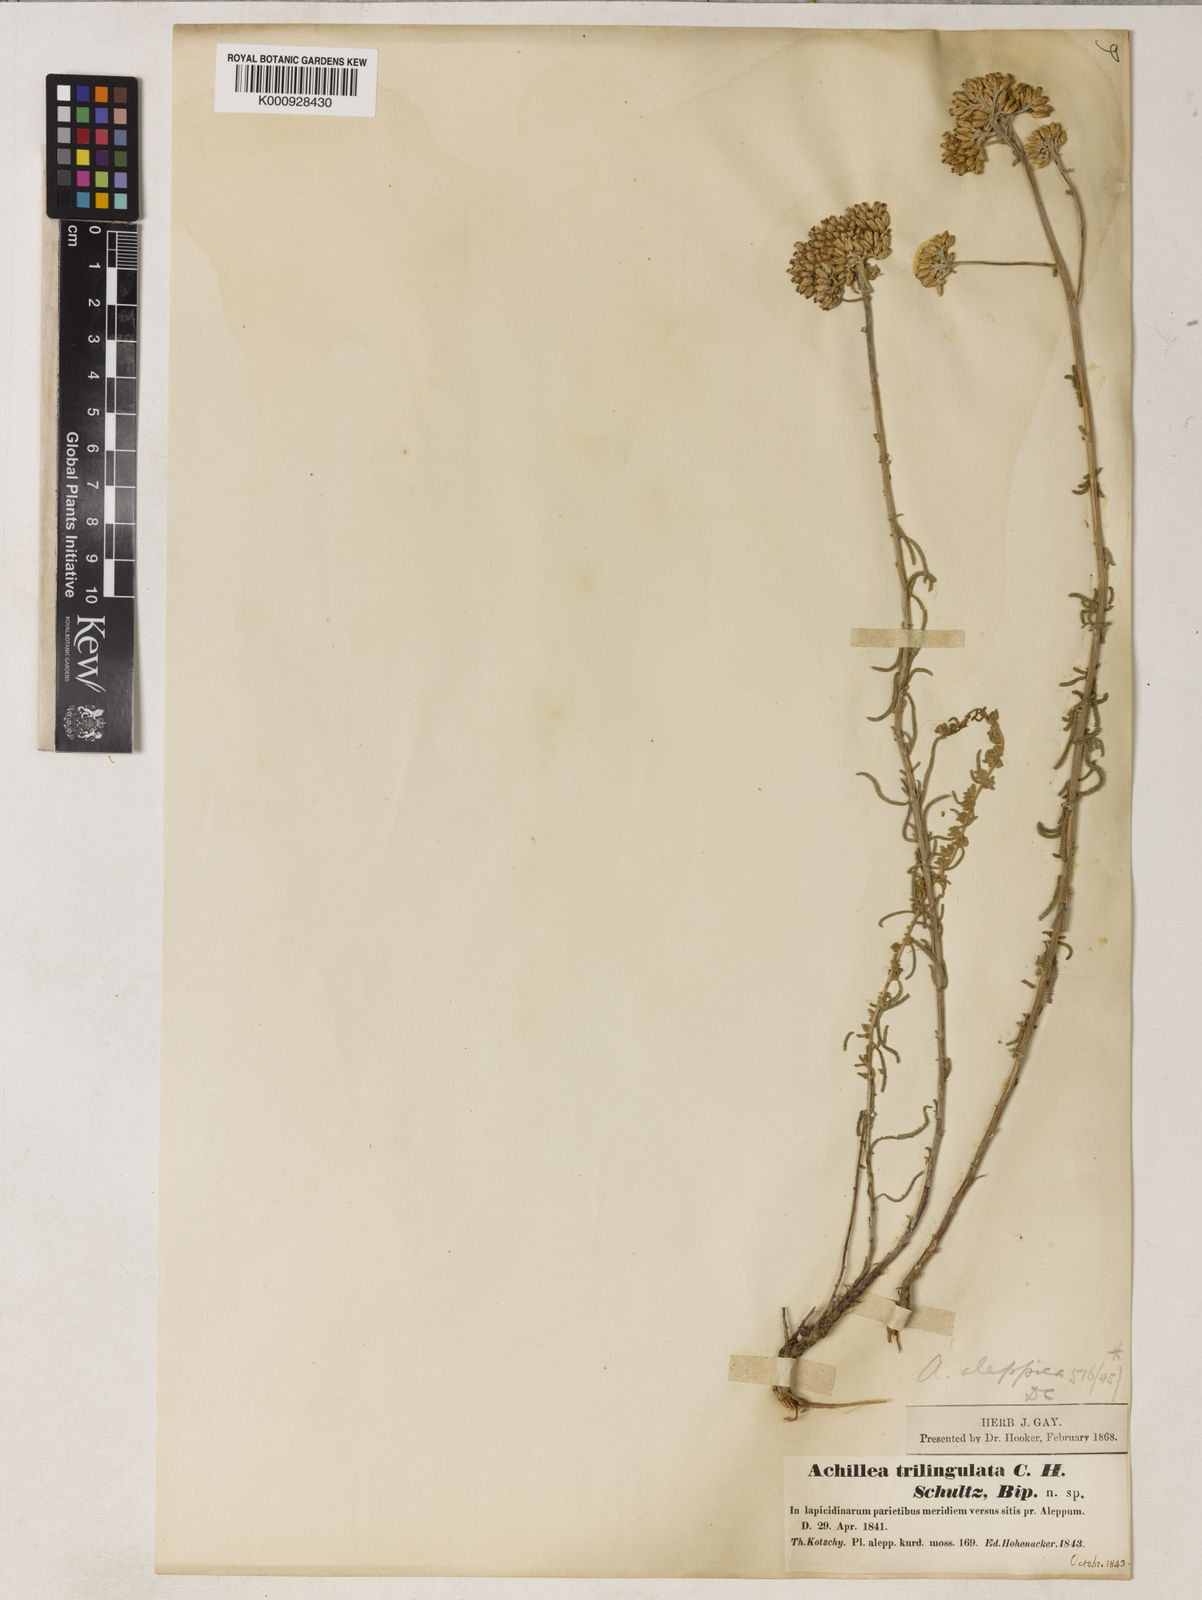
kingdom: Plantae
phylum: Tracheophyta
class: Magnoliopsida
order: Asterales
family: Asteraceae
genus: Achillea
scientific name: Achillea aleppica
